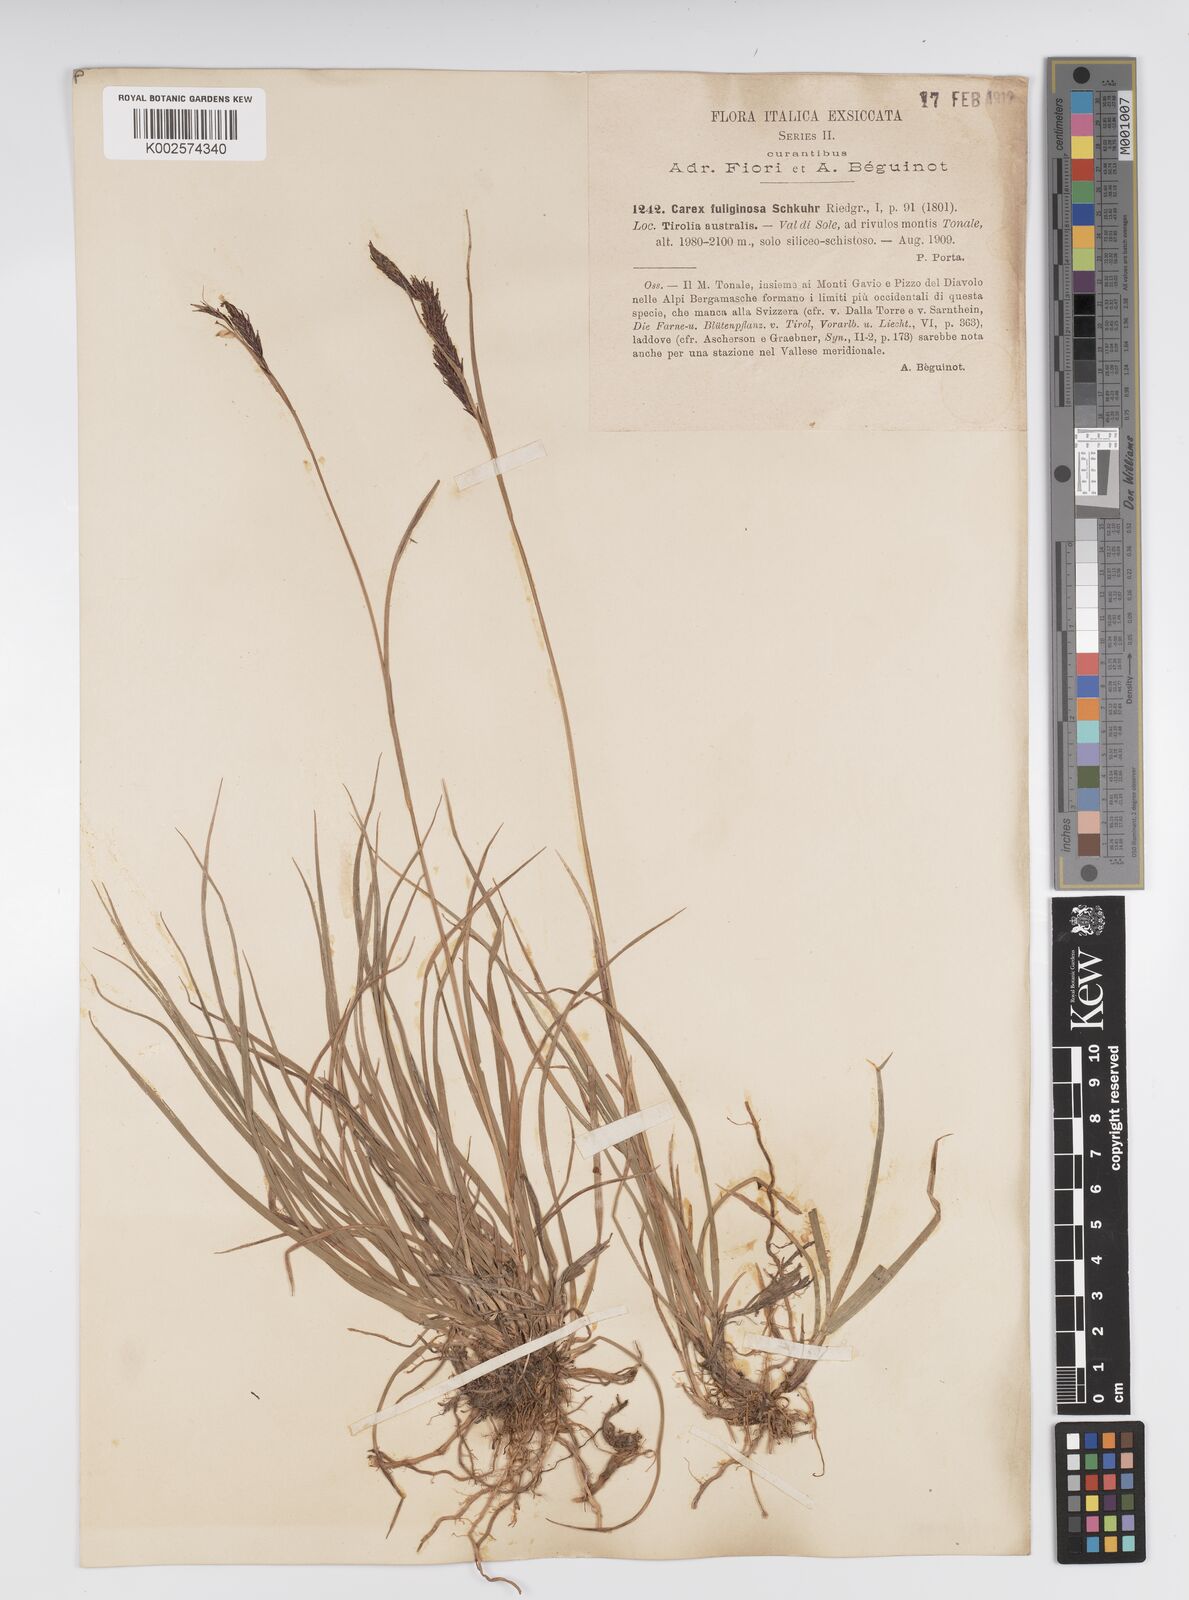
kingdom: Plantae
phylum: Tracheophyta
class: Liliopsida
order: Poales
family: Cyperaceae
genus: Carex
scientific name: Carex fuliginosa
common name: Few-flowered sedge
